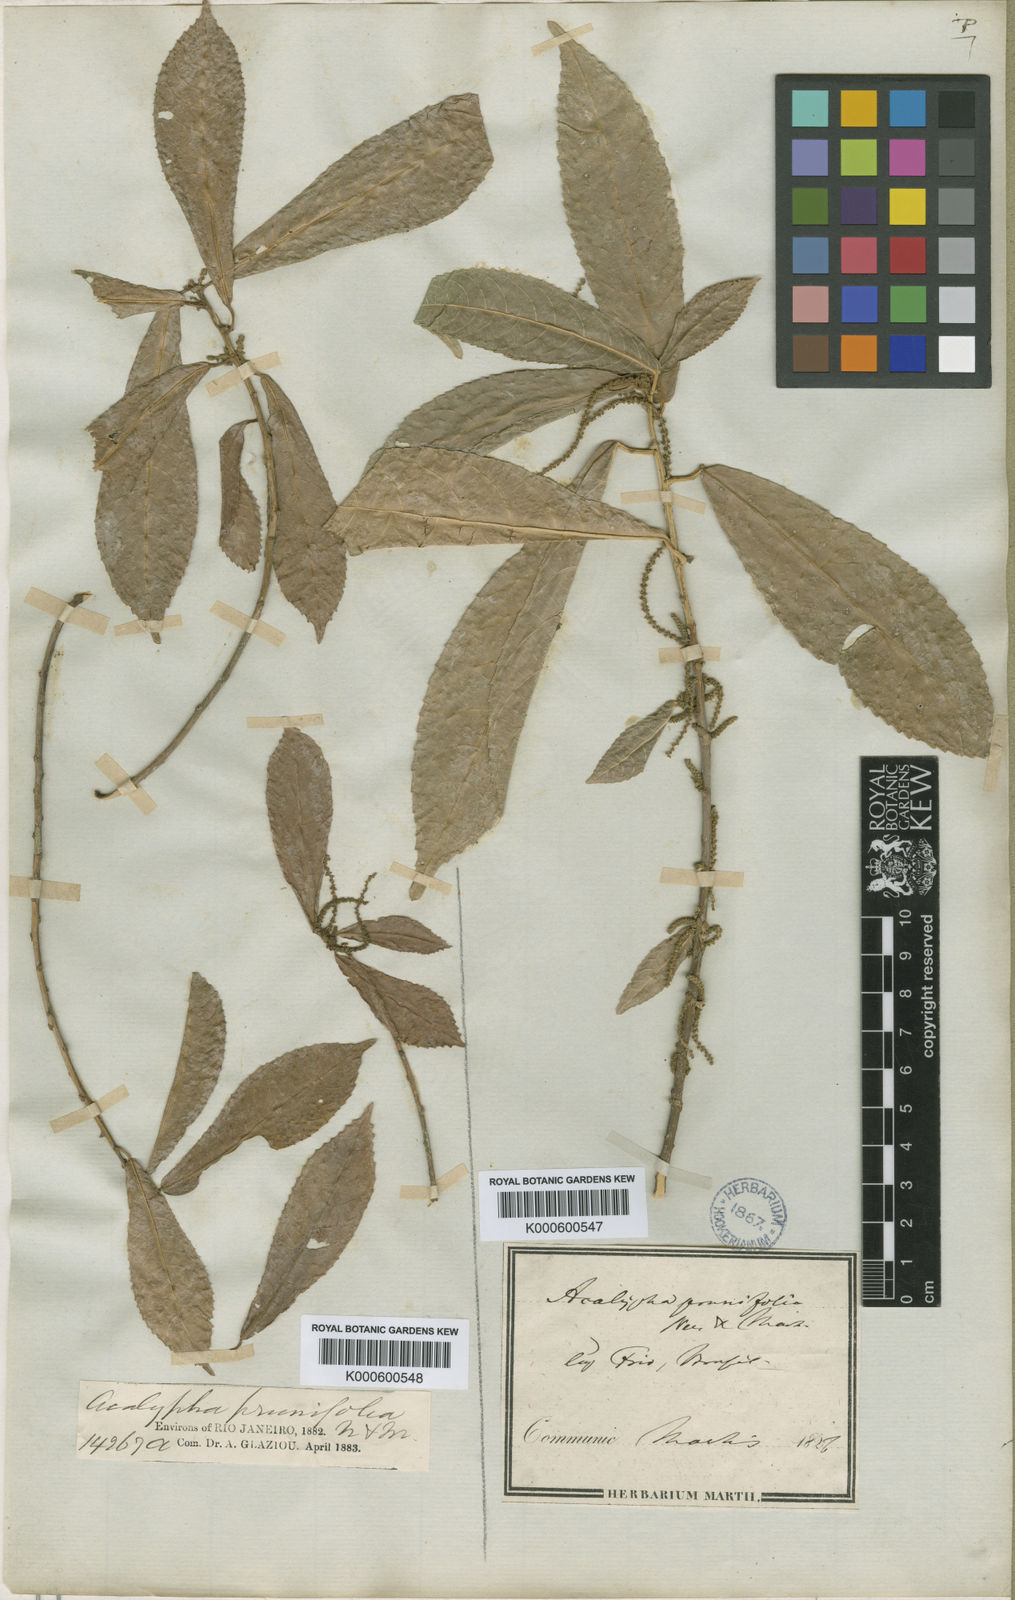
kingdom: Plantae
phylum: Tracheophyta
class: Magnoliopsida
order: Malpighiales
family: Euphorbiaceae
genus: Acalypha
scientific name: Acalypha klotzschii
